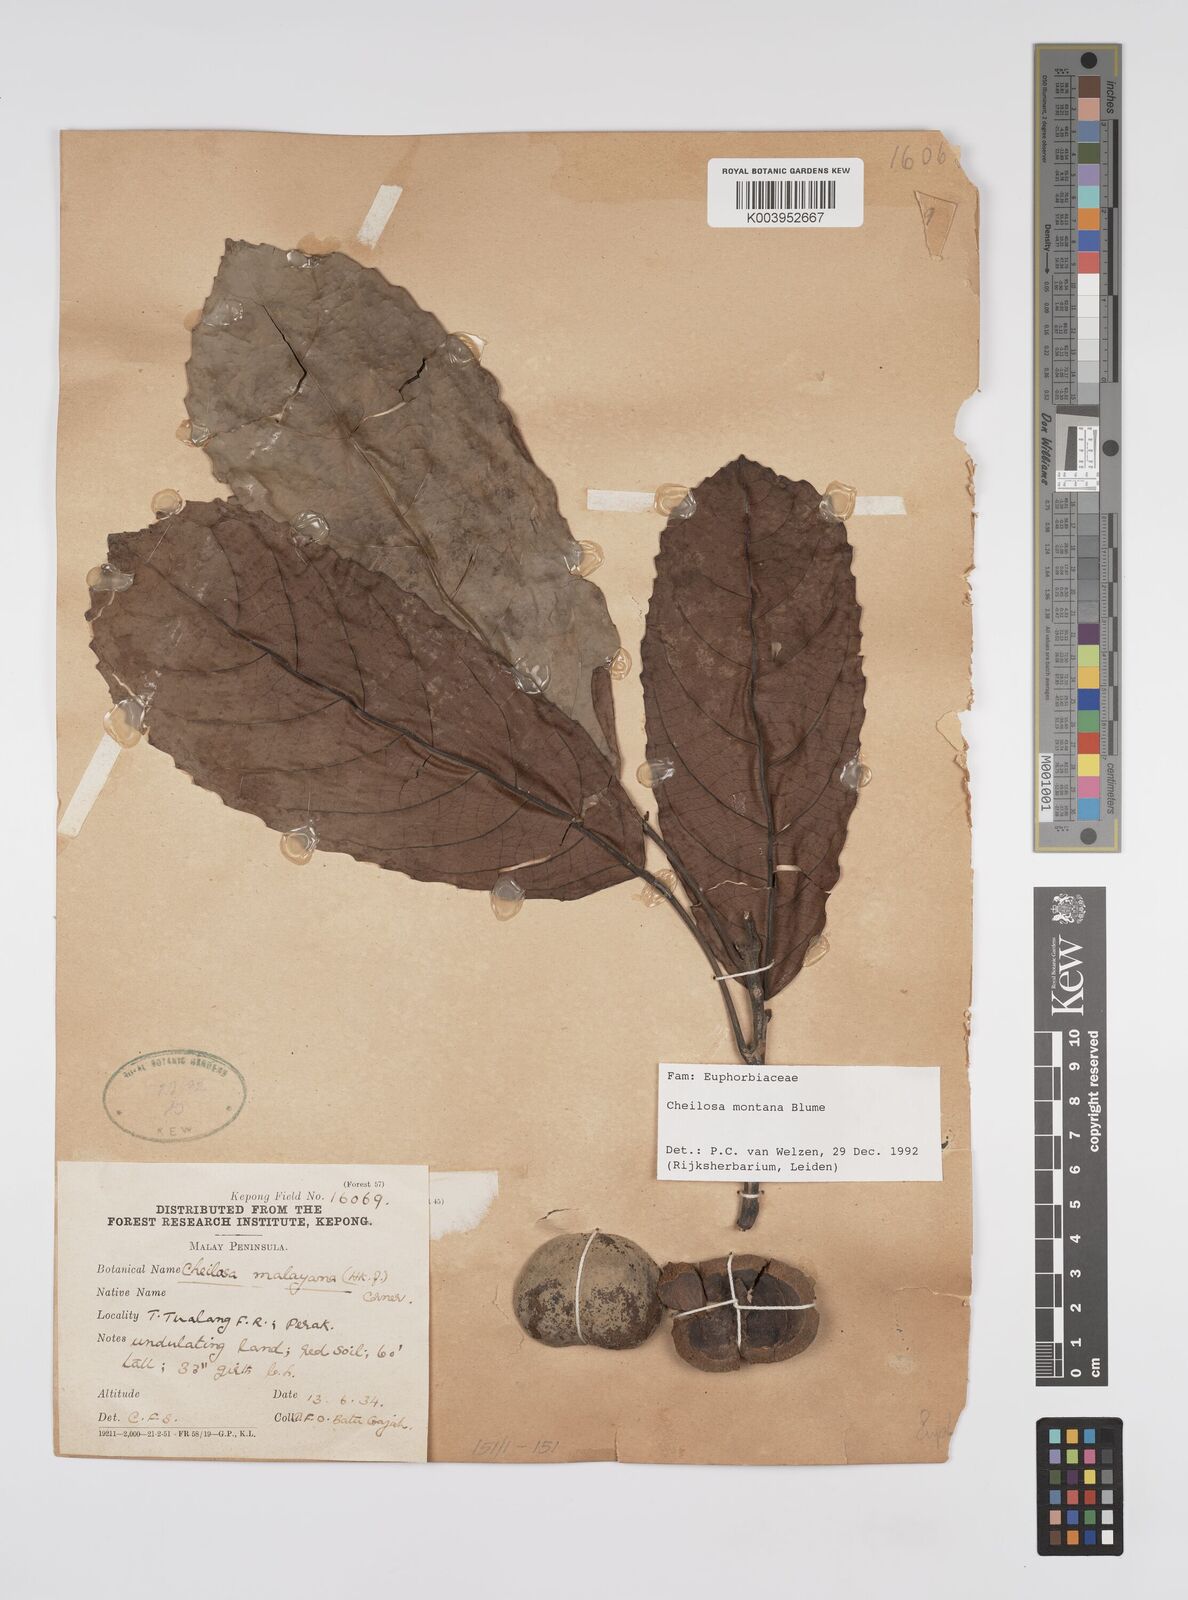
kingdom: Plantae
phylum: Tracheophyta
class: Magnoliopsida
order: Malpighiales
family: Euphorbiaceae
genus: Cheilosa
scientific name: Cheilosa montana
